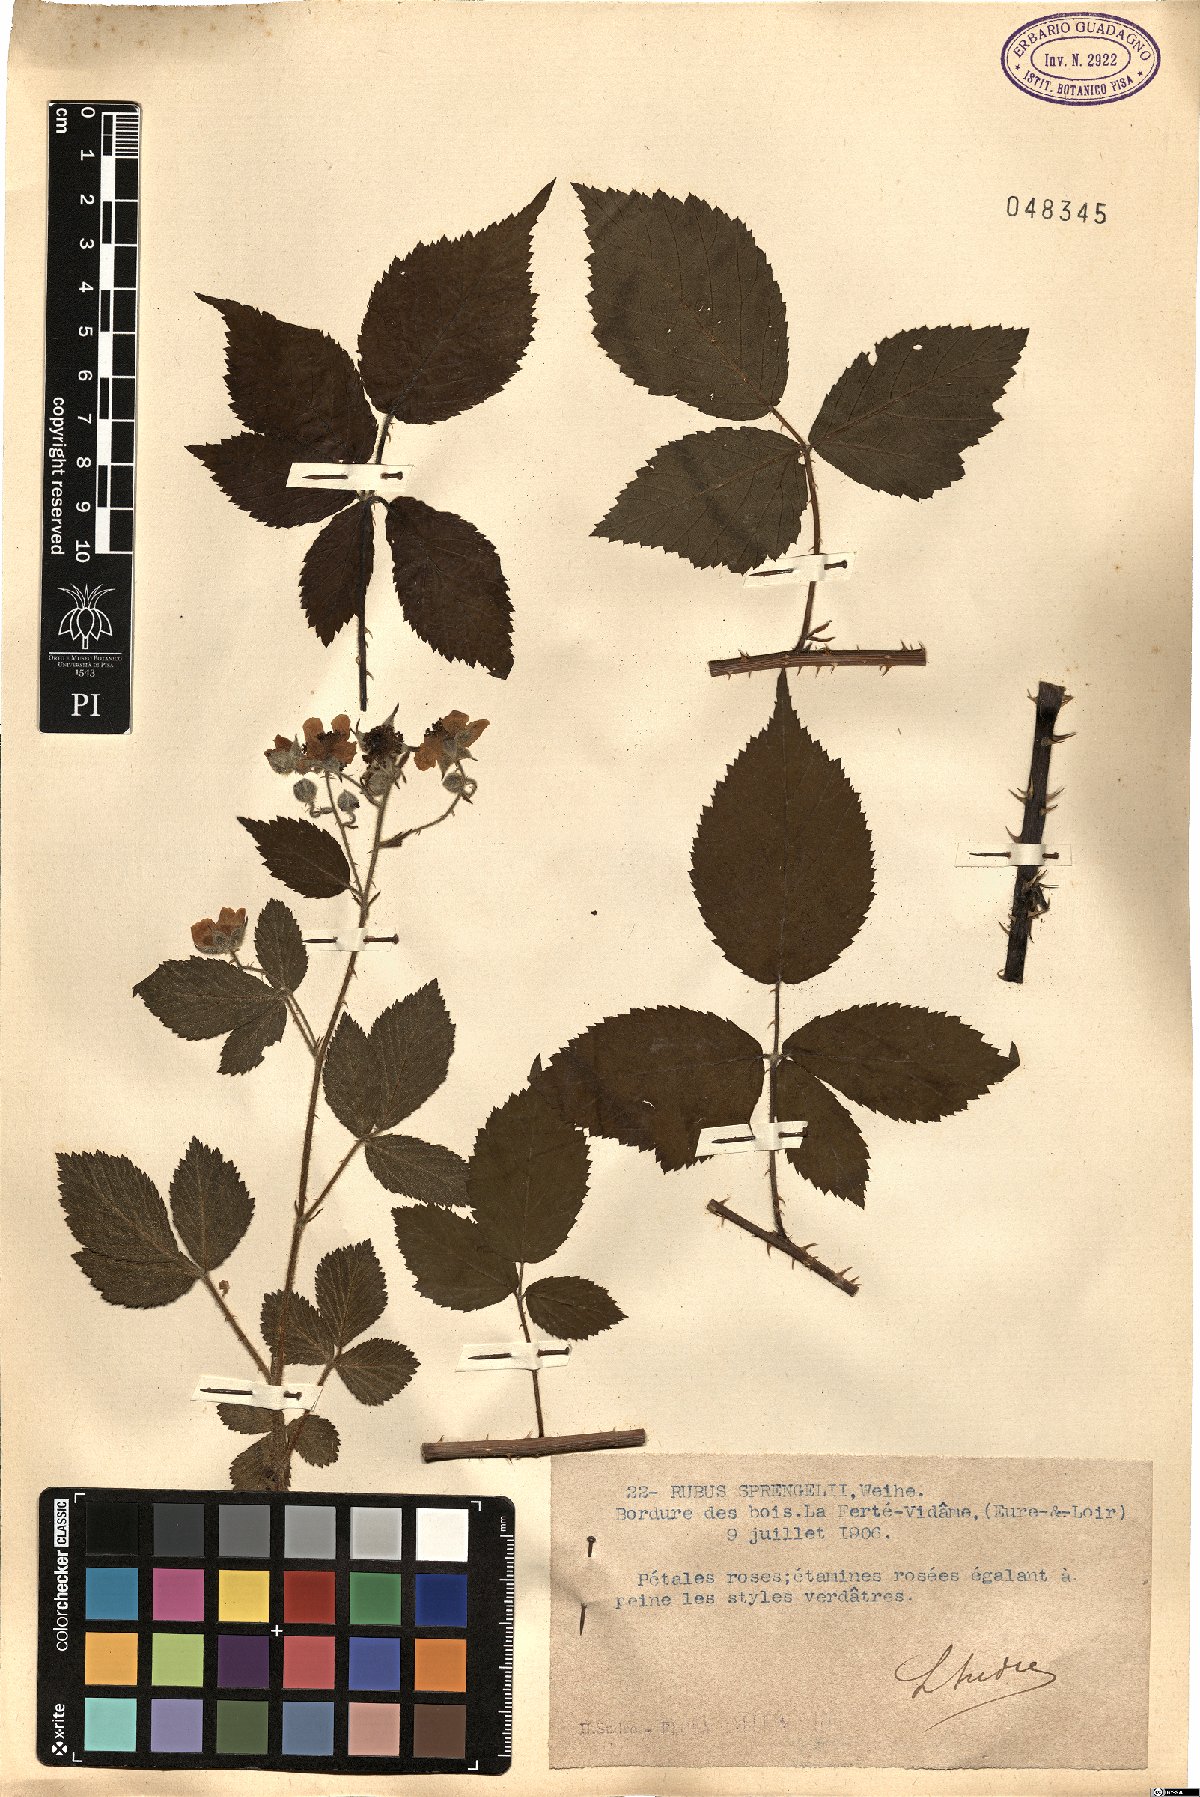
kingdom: Plantae
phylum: Tracheophyta
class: Magnoliopsida
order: Rosales
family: Rosaceae
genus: Rubus
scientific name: Rubus sprengelii
